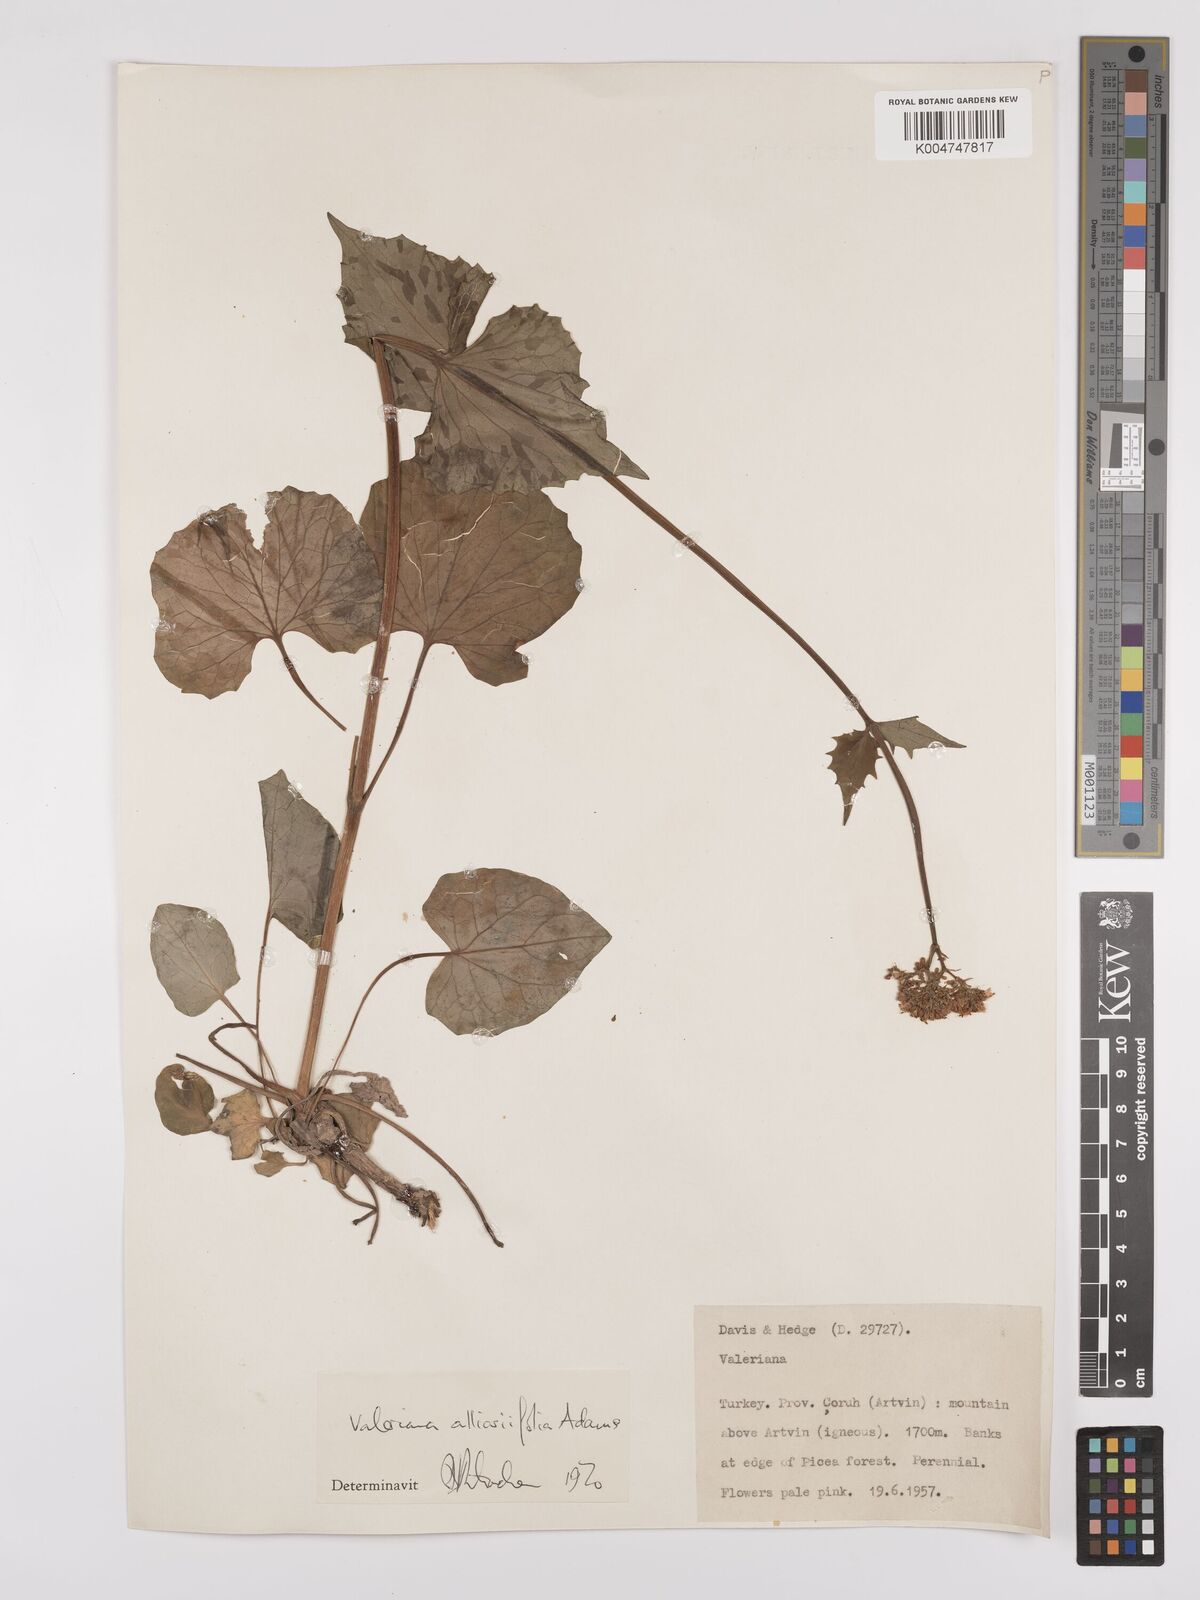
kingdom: Plantae
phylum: Tracheophyta
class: Magnoliopsida
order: Dipsacales
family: Caprifoliaceae
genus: Valeriana
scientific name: Valeriana
